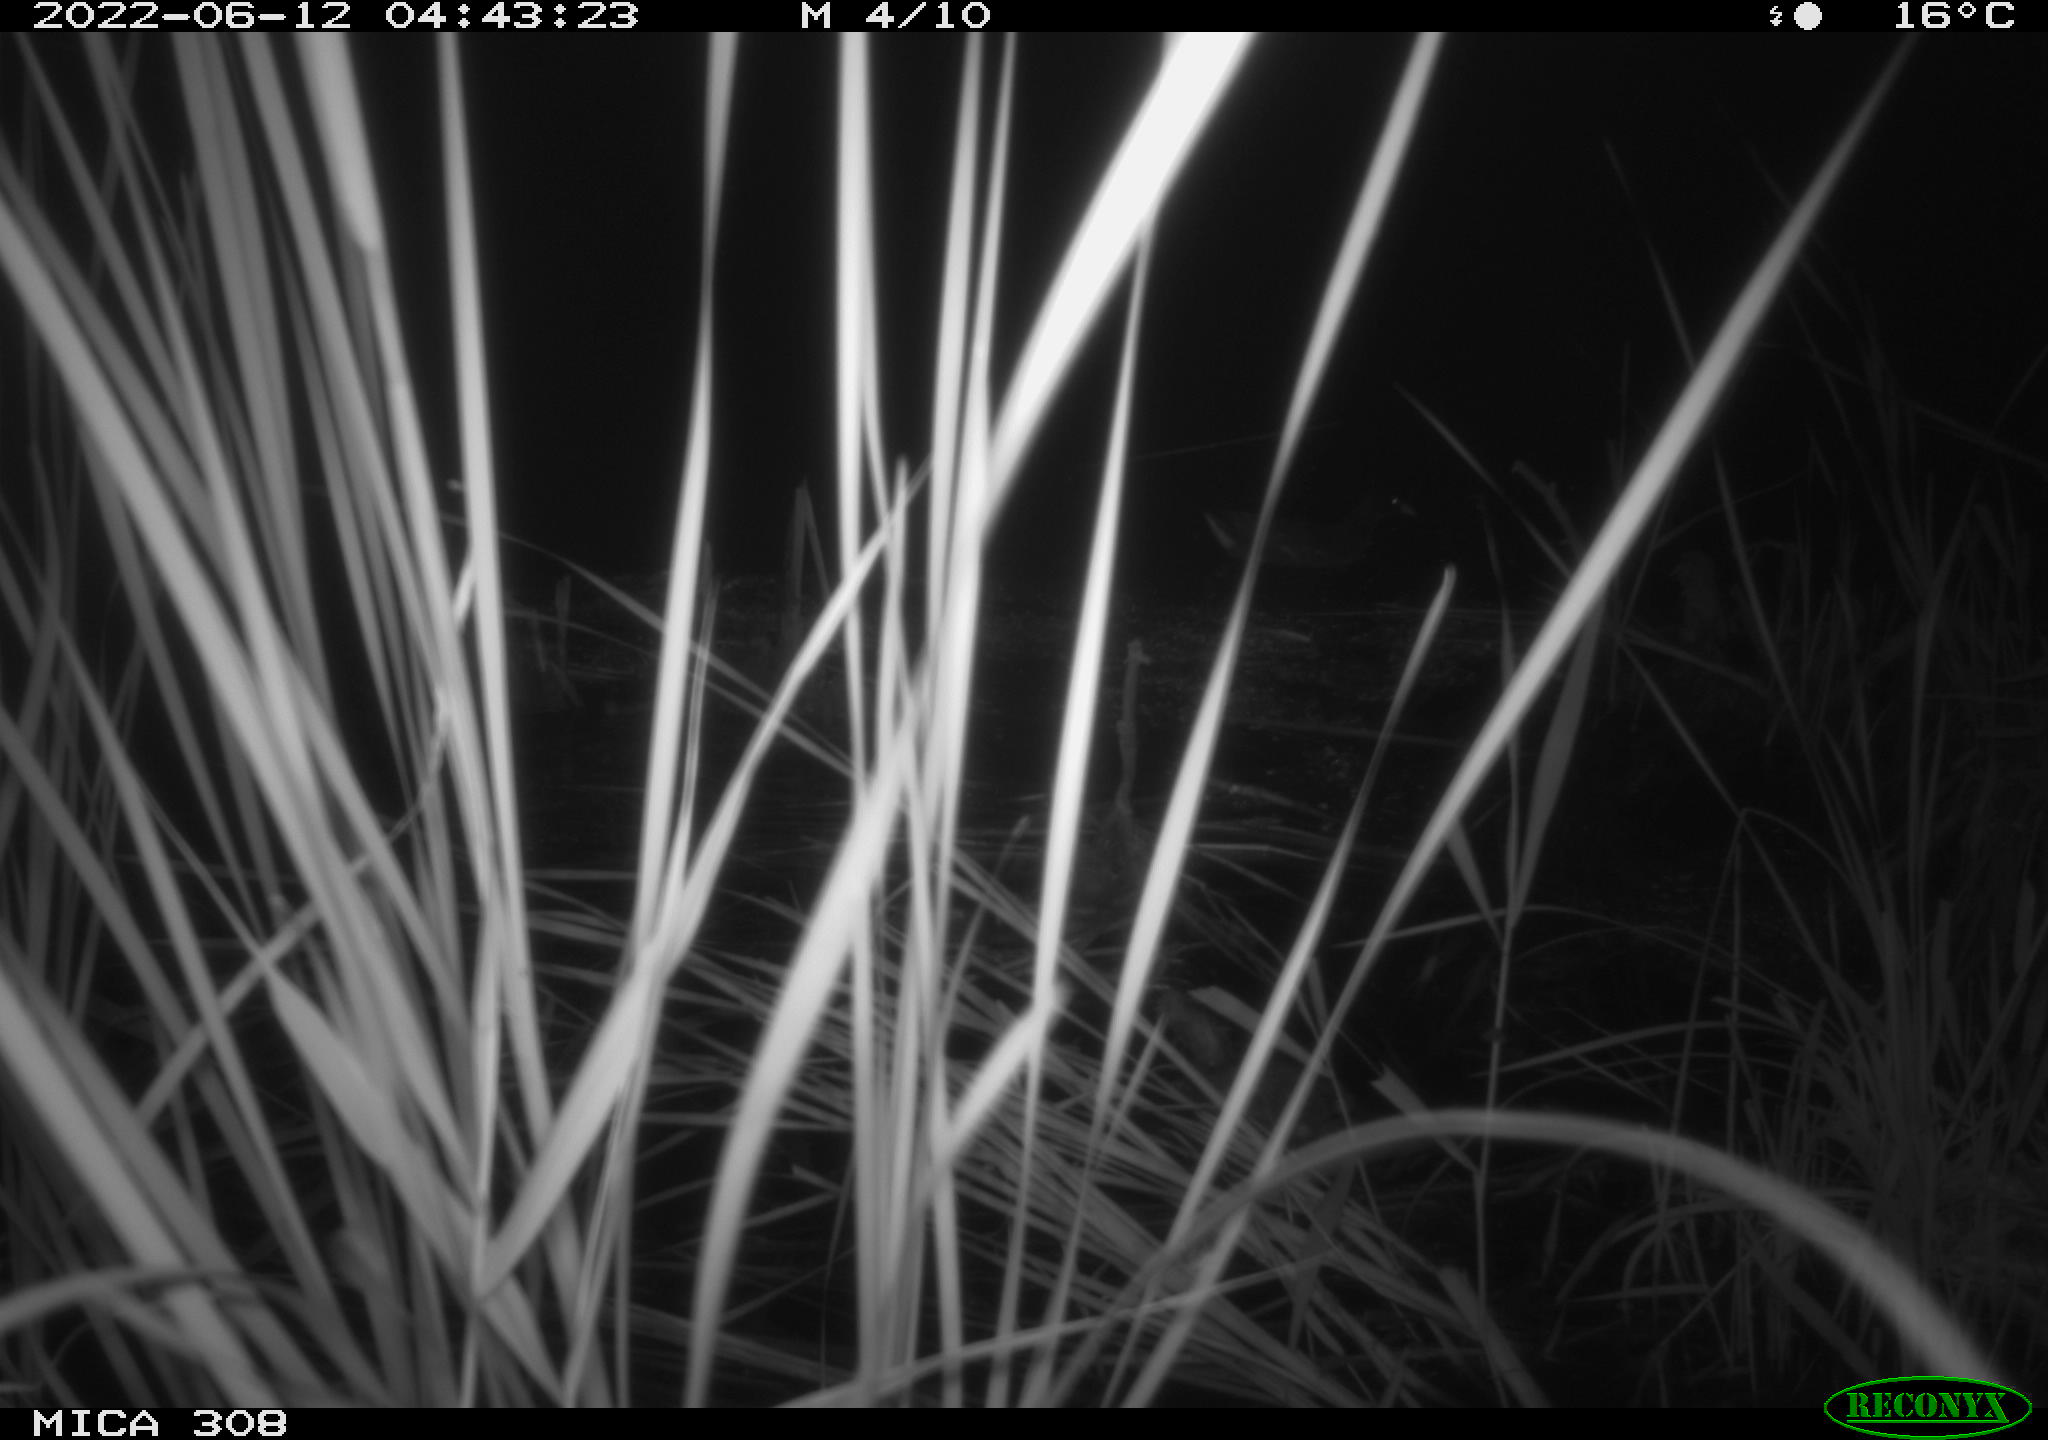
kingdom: Animalia
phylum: Chordata
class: Aves
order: Gruiformes
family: Rallidae
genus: Gallinula
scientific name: Gallinula chloropus
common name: Common moorhen
